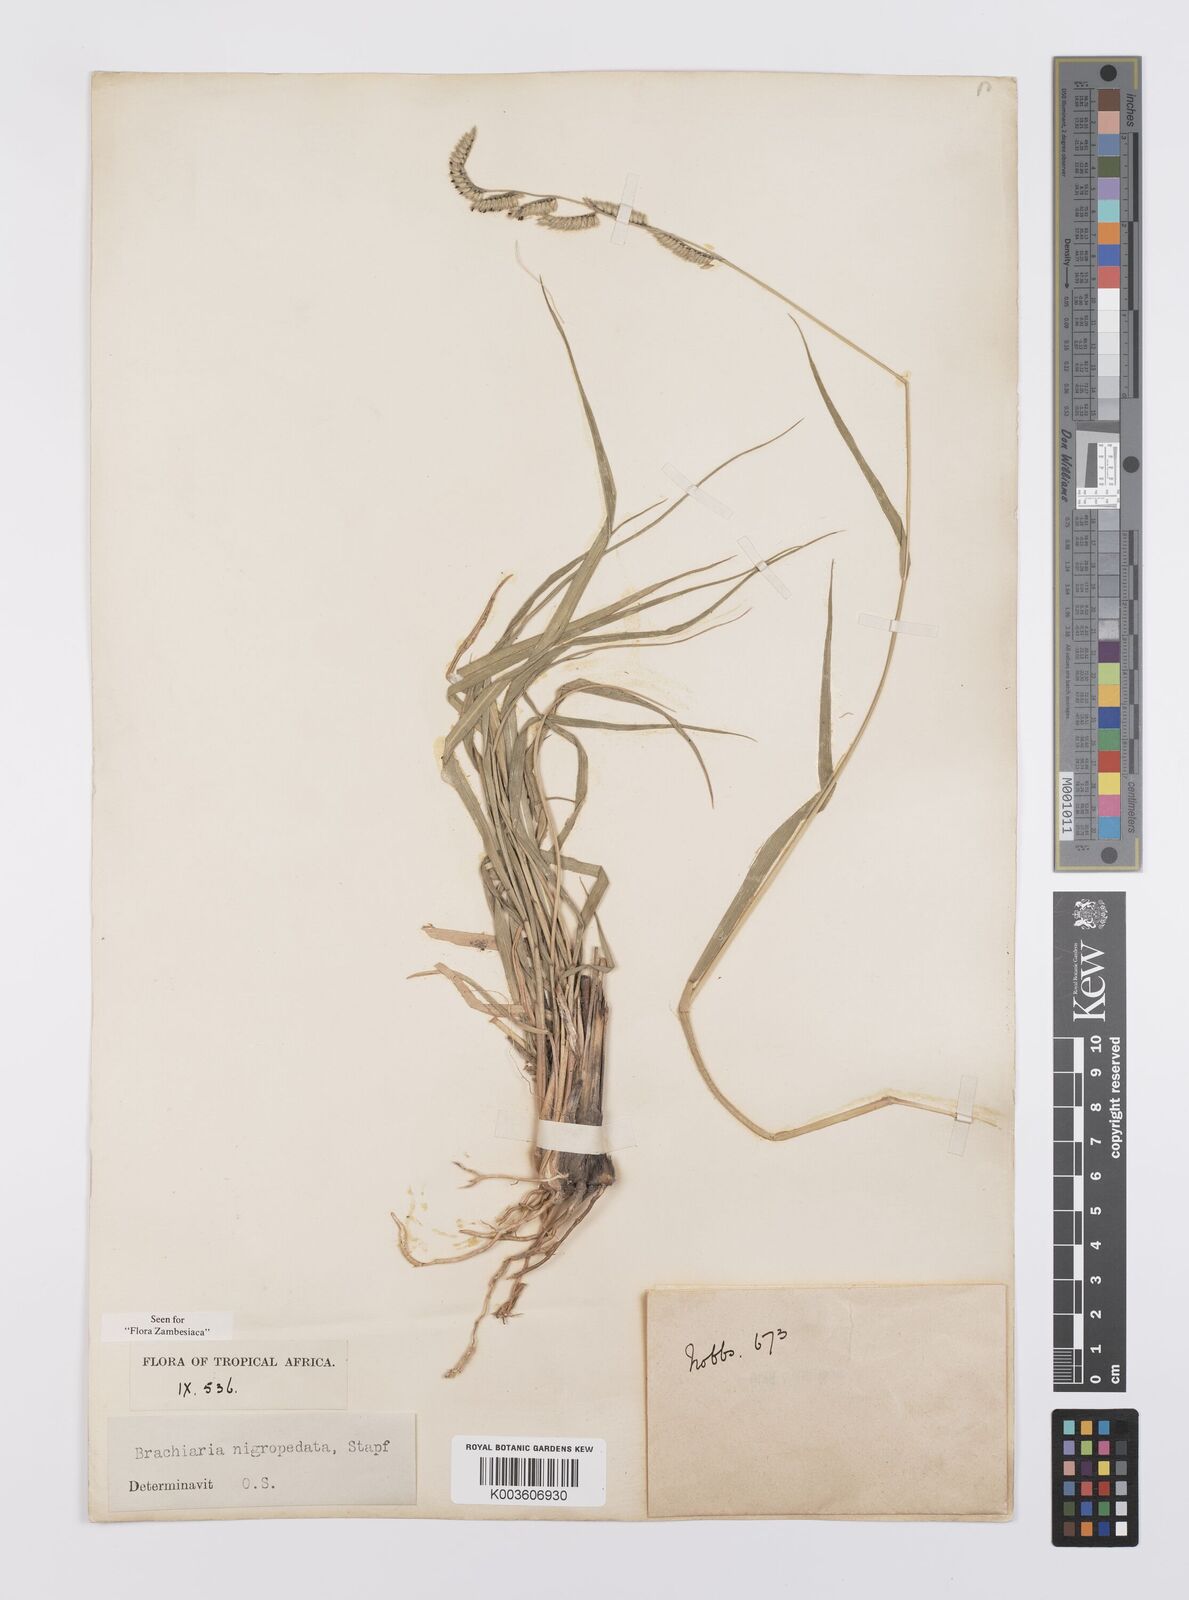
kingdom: Plantae
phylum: Tracheophyta
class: Liliopsida
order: Poales
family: Poaceae
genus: Urochloa
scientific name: Urochloa nigropedata
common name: Spotted signal grass
